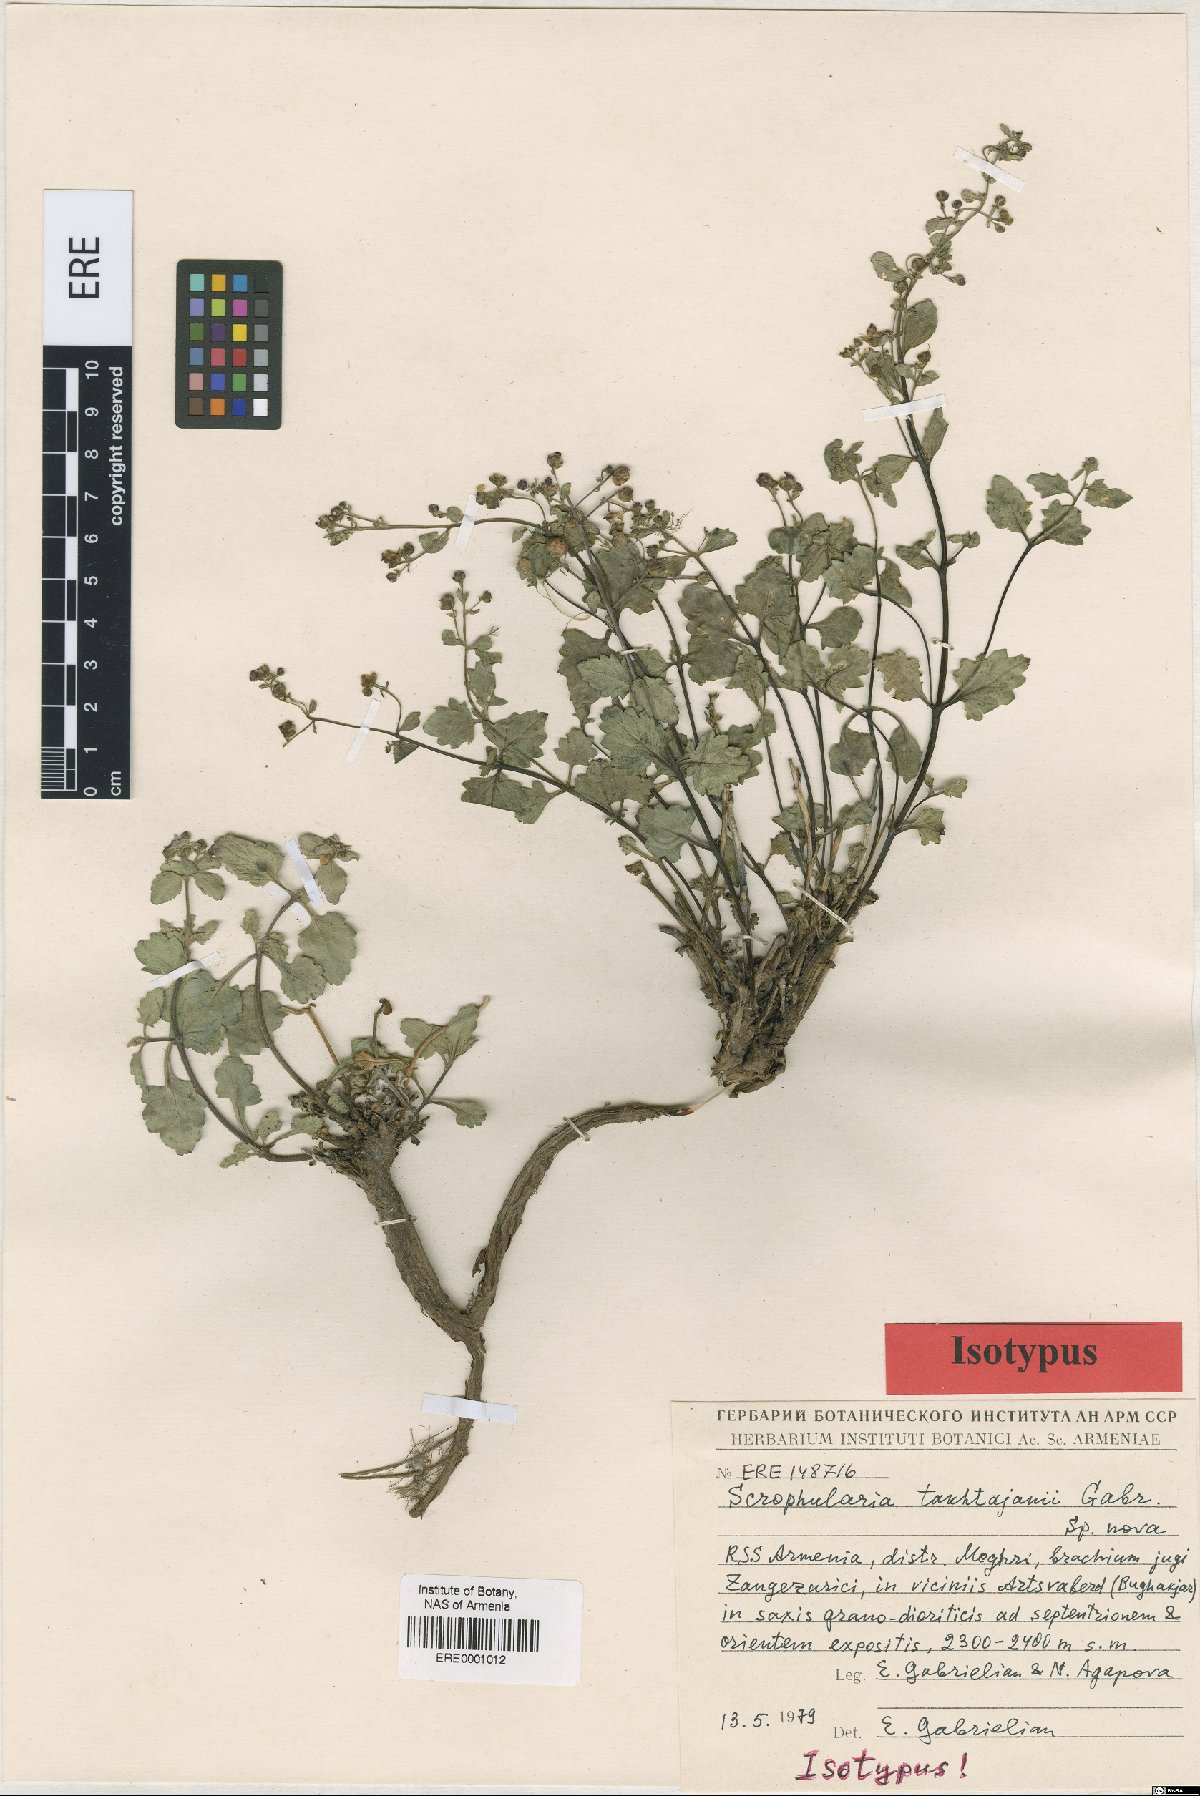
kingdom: Plantae
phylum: Tracheophyta
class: Magnoliopsida
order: Lamiales
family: Scrophulariaceae
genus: Scrophularia
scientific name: Scrophularia takhtajanii
